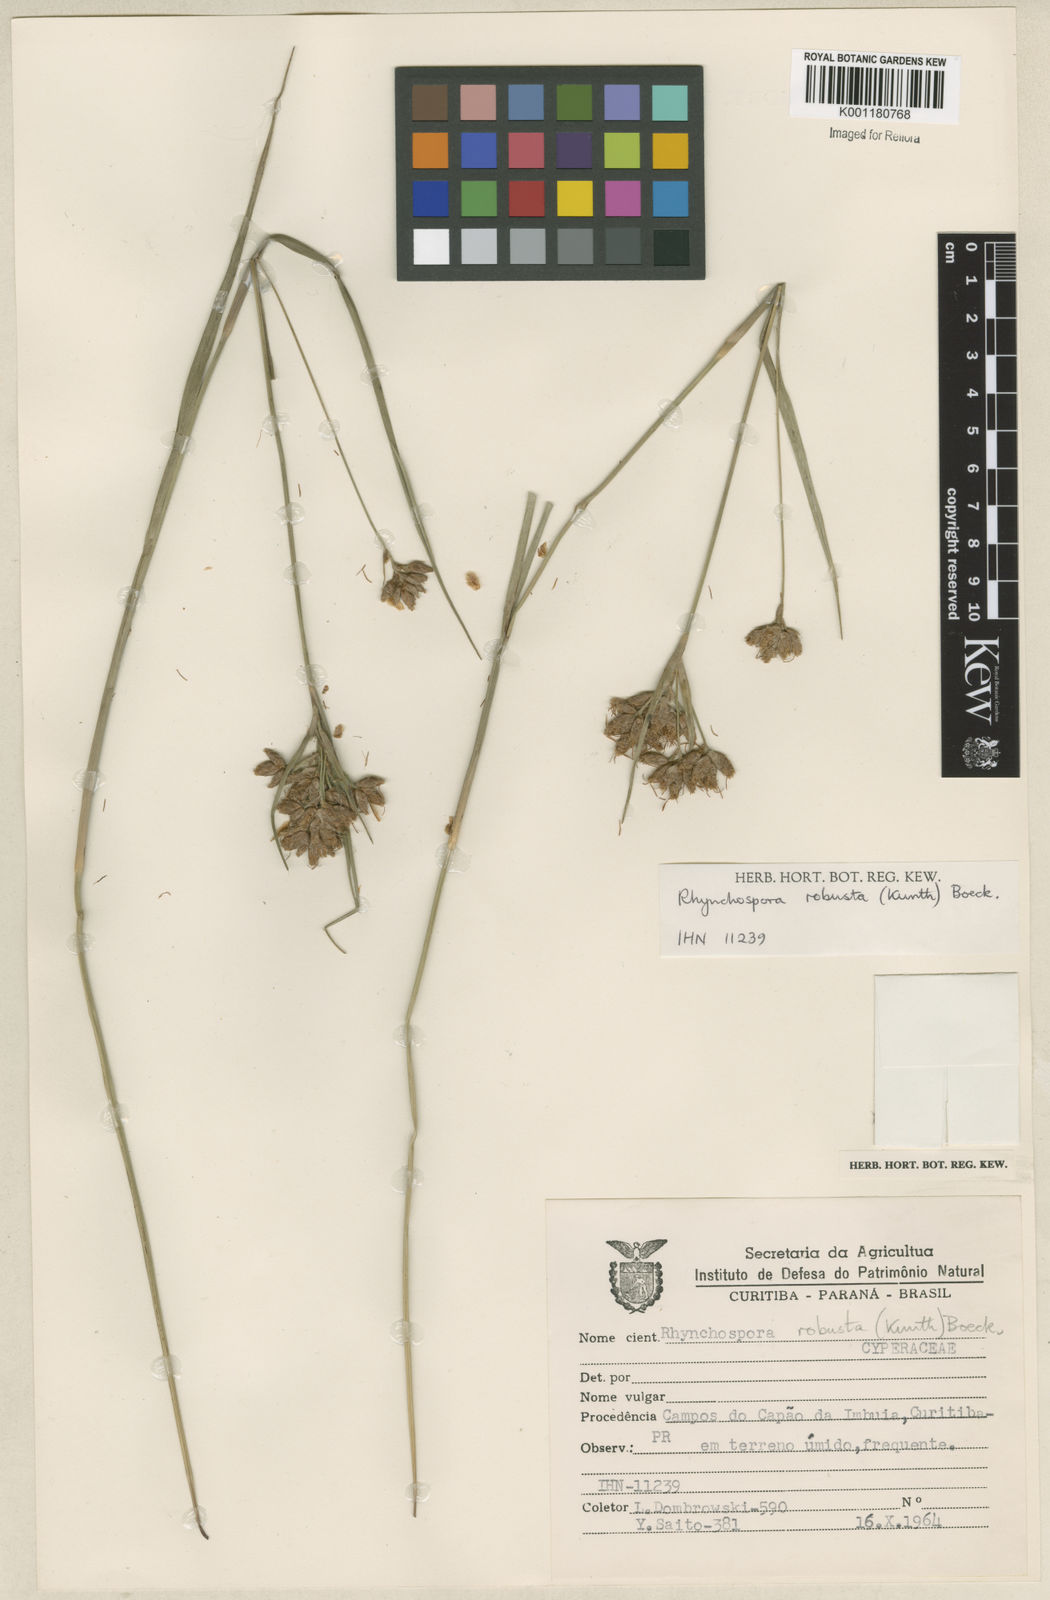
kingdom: Plantae
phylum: Tracheophyta
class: Liliopsida
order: Poales
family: Cyperaceae
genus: Rhynchospora
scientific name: Rhynchospora robusta
